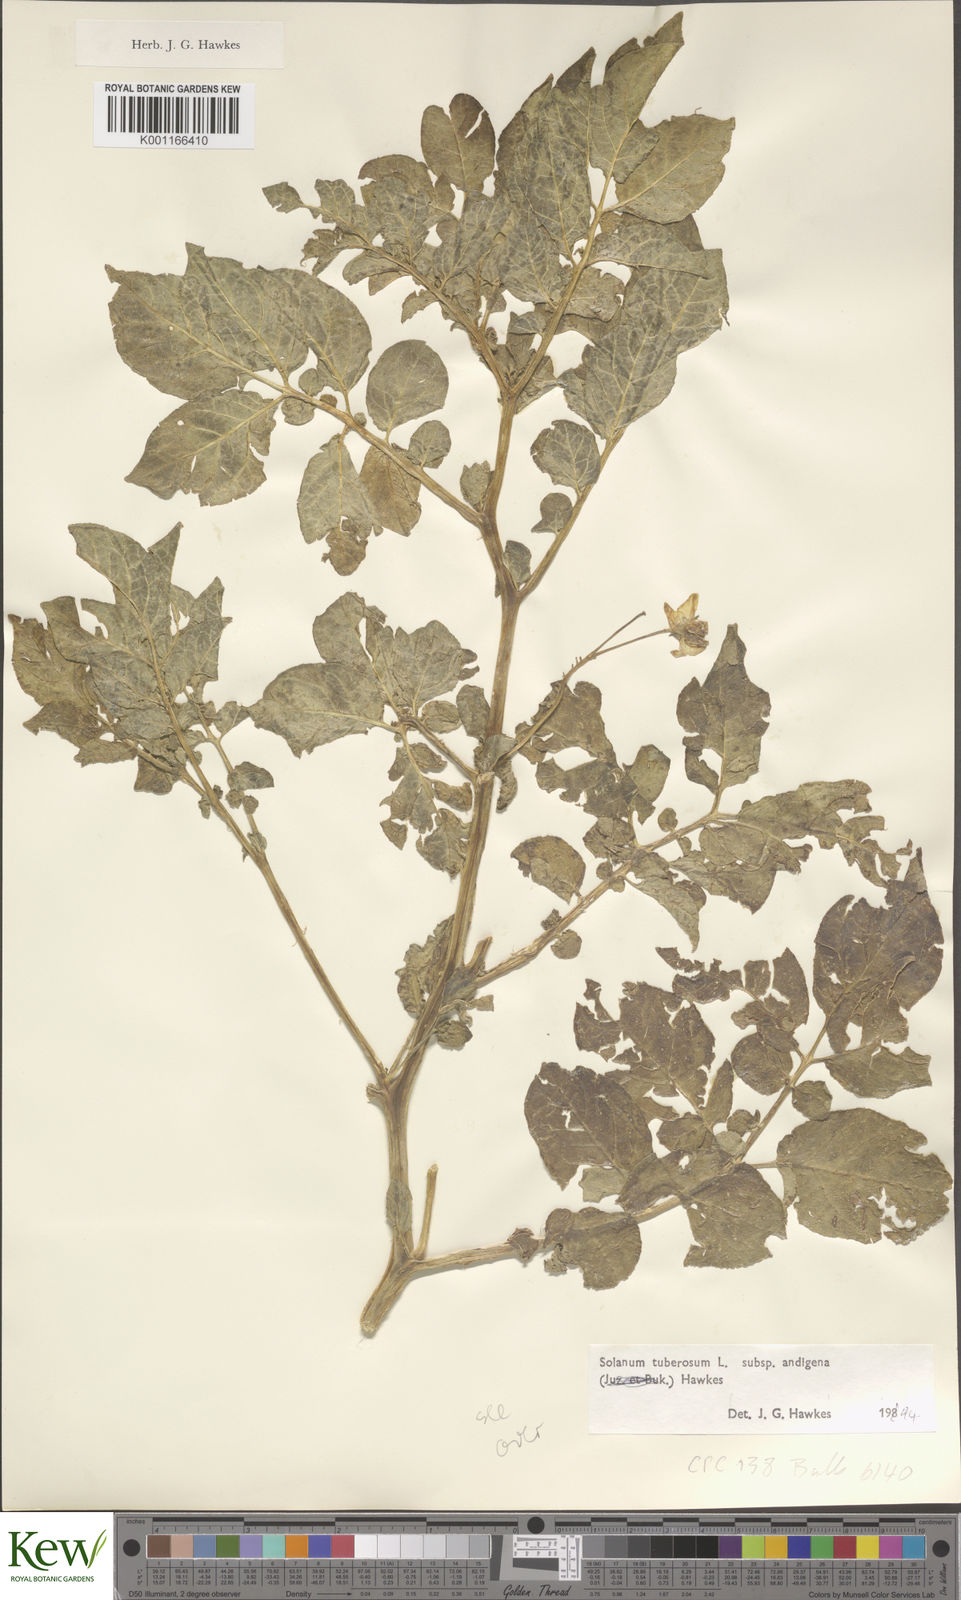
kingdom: Plantae
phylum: Tracheophyta
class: Magnoliopsida
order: Solanales
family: Solanaceae
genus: Solanum
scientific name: Solanum tuberosum
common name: Potato
